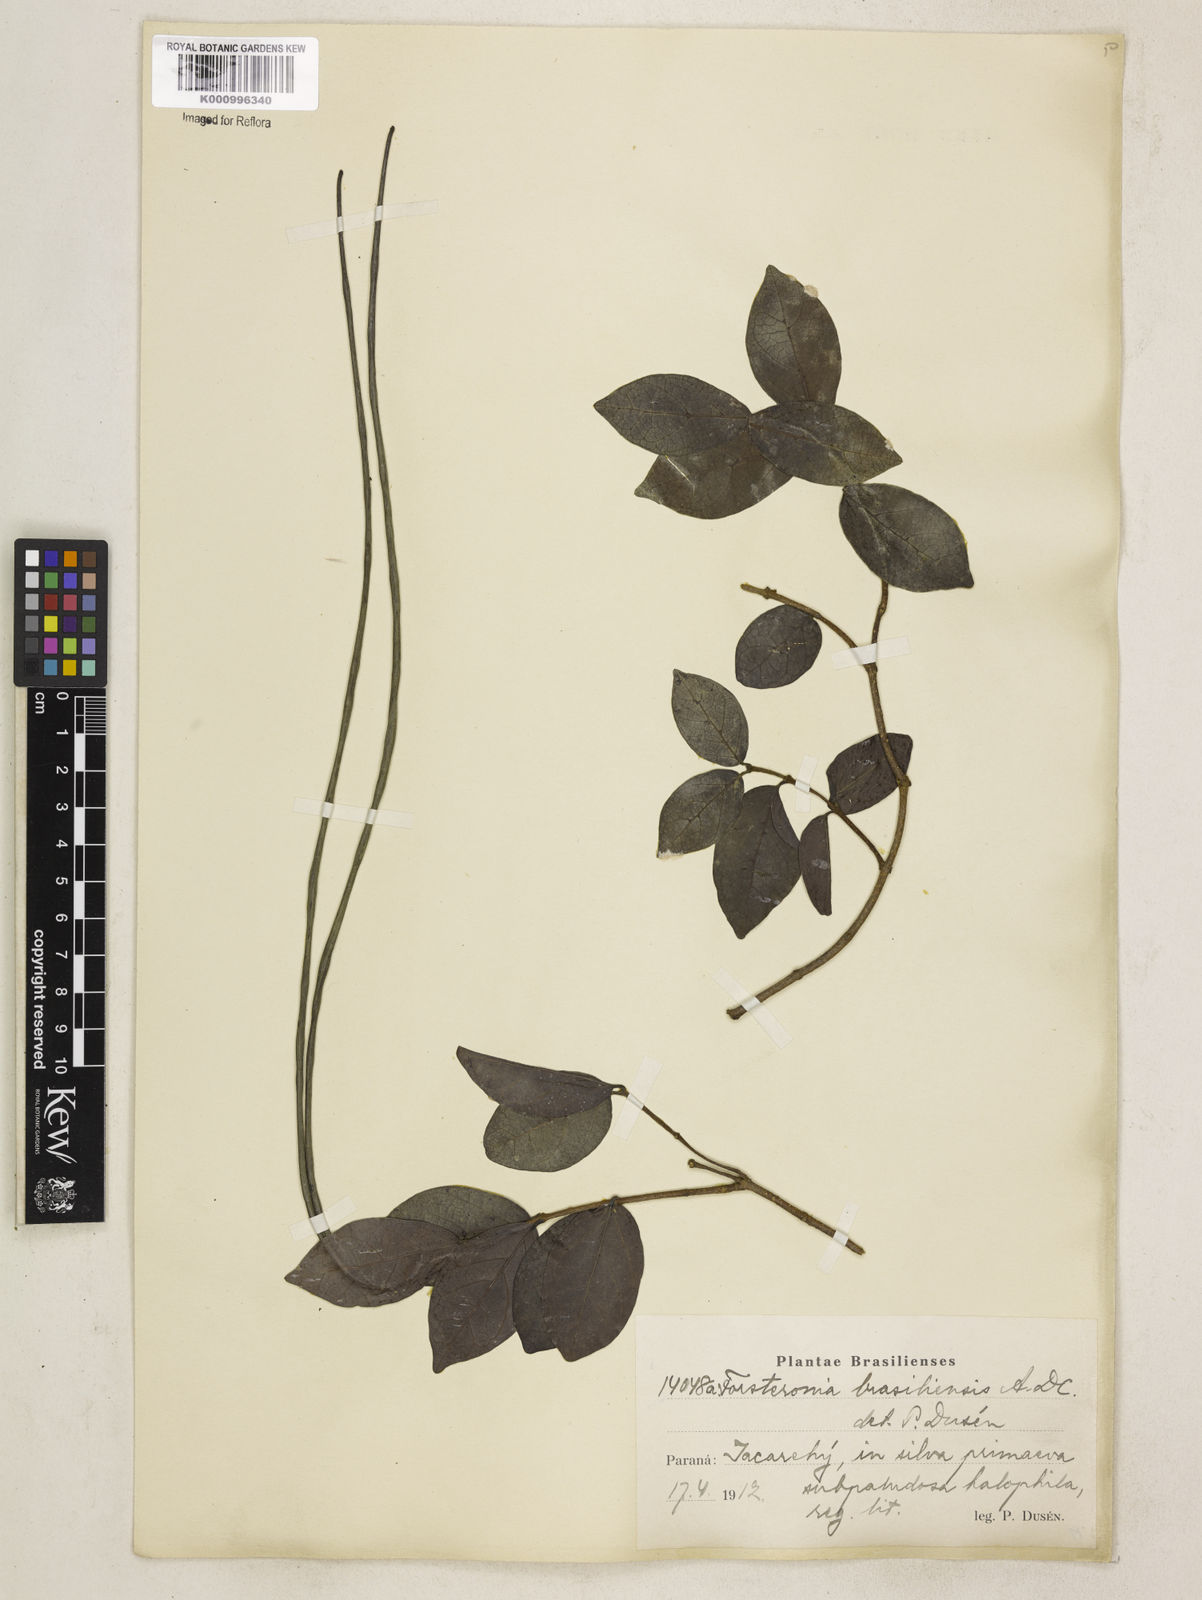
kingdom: Plantae
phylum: Tracheophyta
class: Magnoliopsida
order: Gentianales
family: Apocynaceae
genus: Forsteronia
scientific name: Forsteronia leptocarpa
